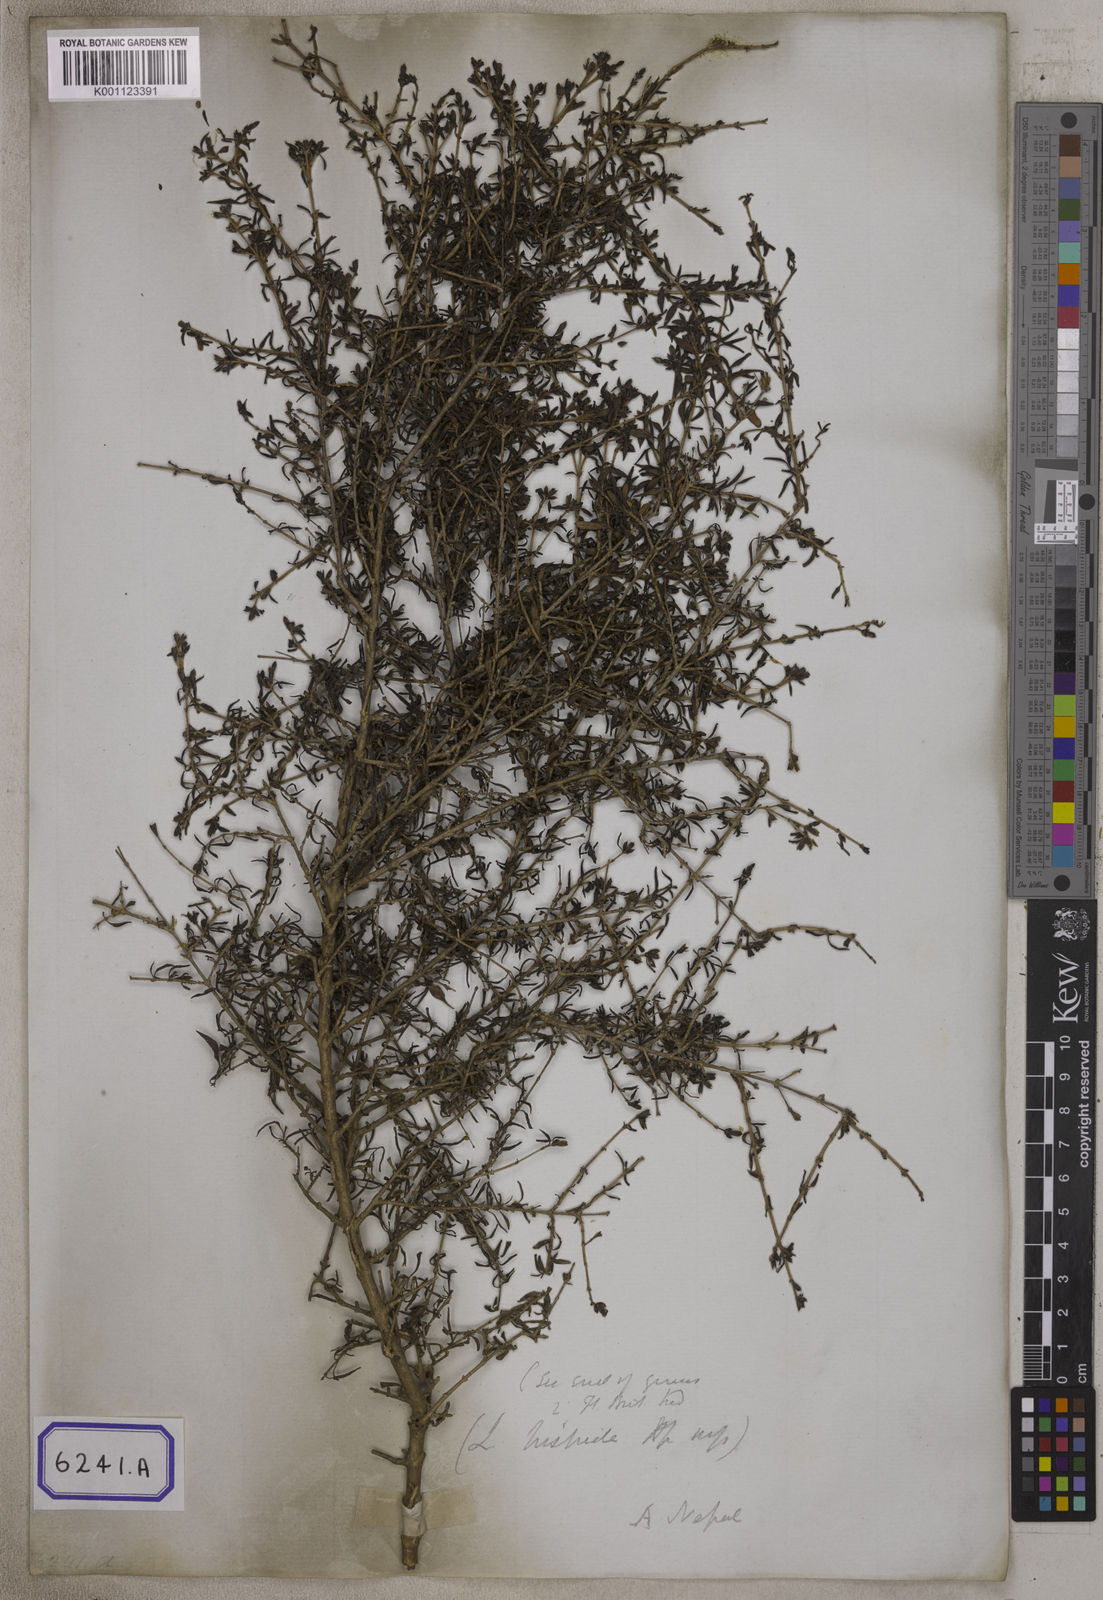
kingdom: Plantae
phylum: Tracheophyta
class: Magnoliopsida
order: Gentianales
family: Rubiaceae
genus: Leptodermis
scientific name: Leptodermis lanceolata
